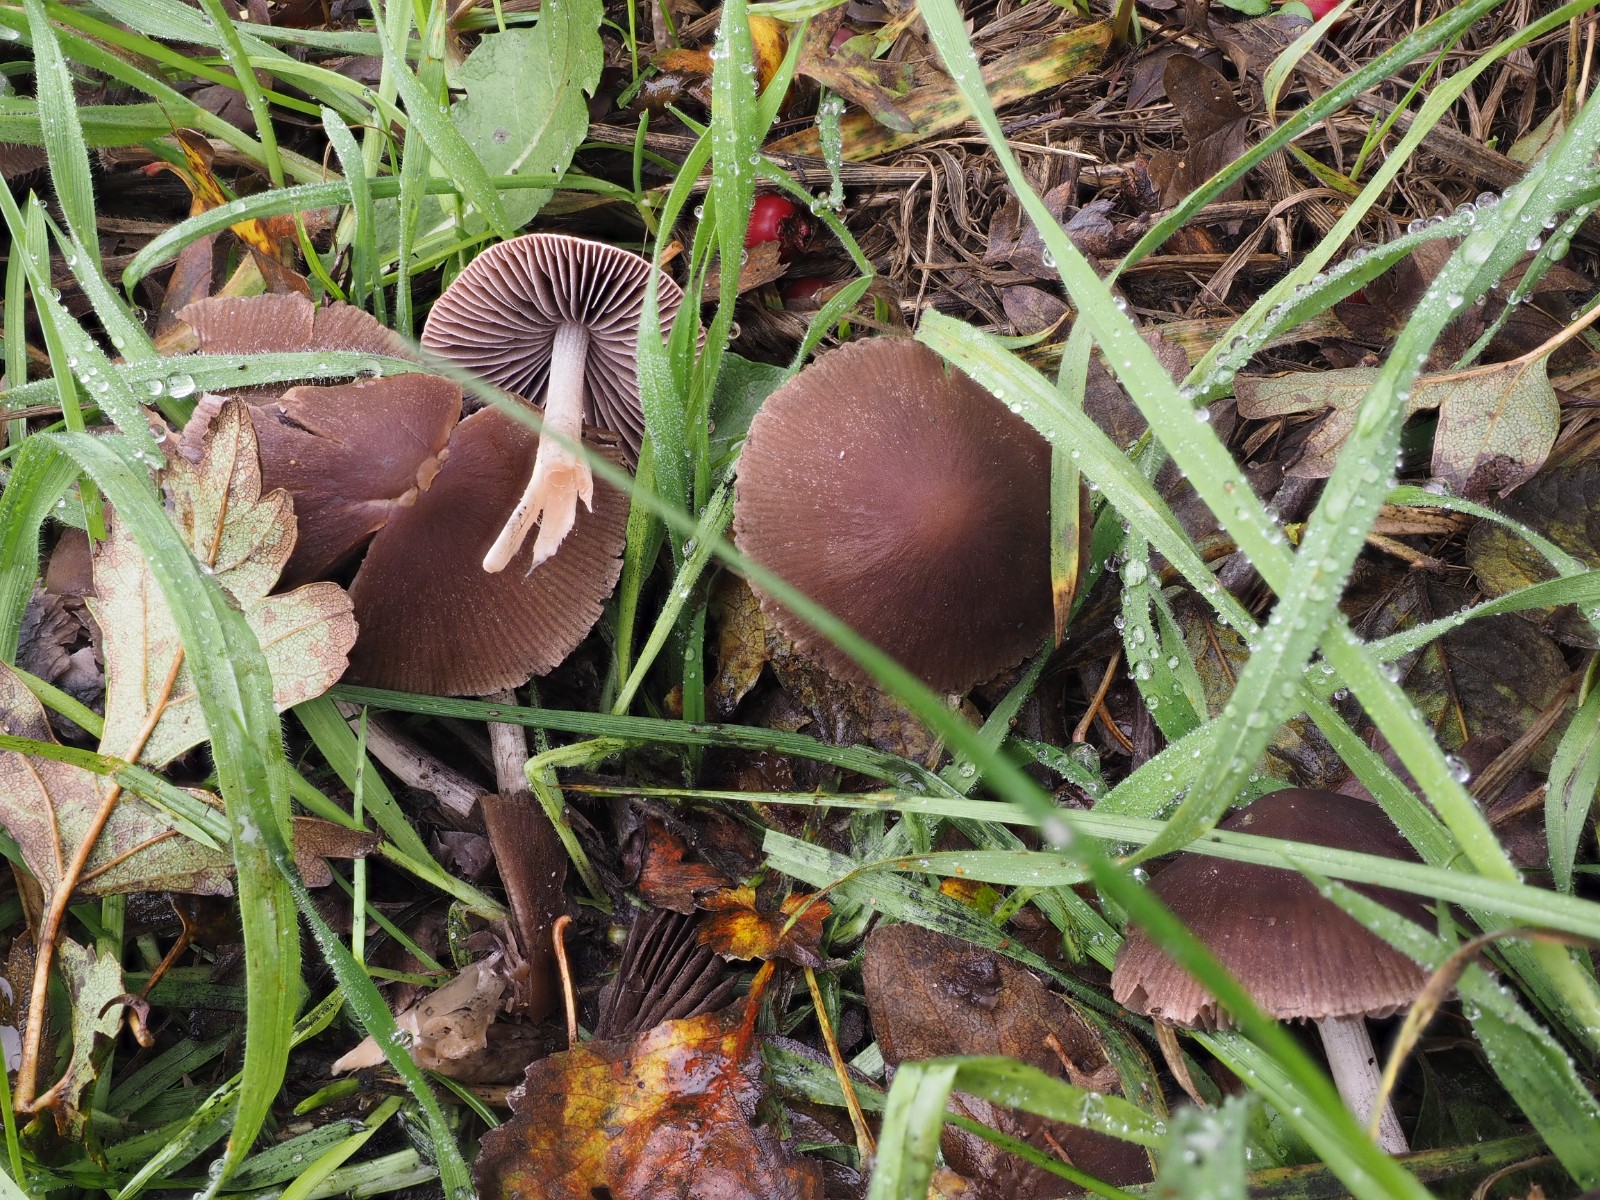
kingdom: Fungi
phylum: Basidiomycota
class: Agaricomycetes
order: Agaricales
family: Psathyrellaceae
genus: Psathyrella
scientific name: Psathyrella bipellis
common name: vinrød mørkhat
